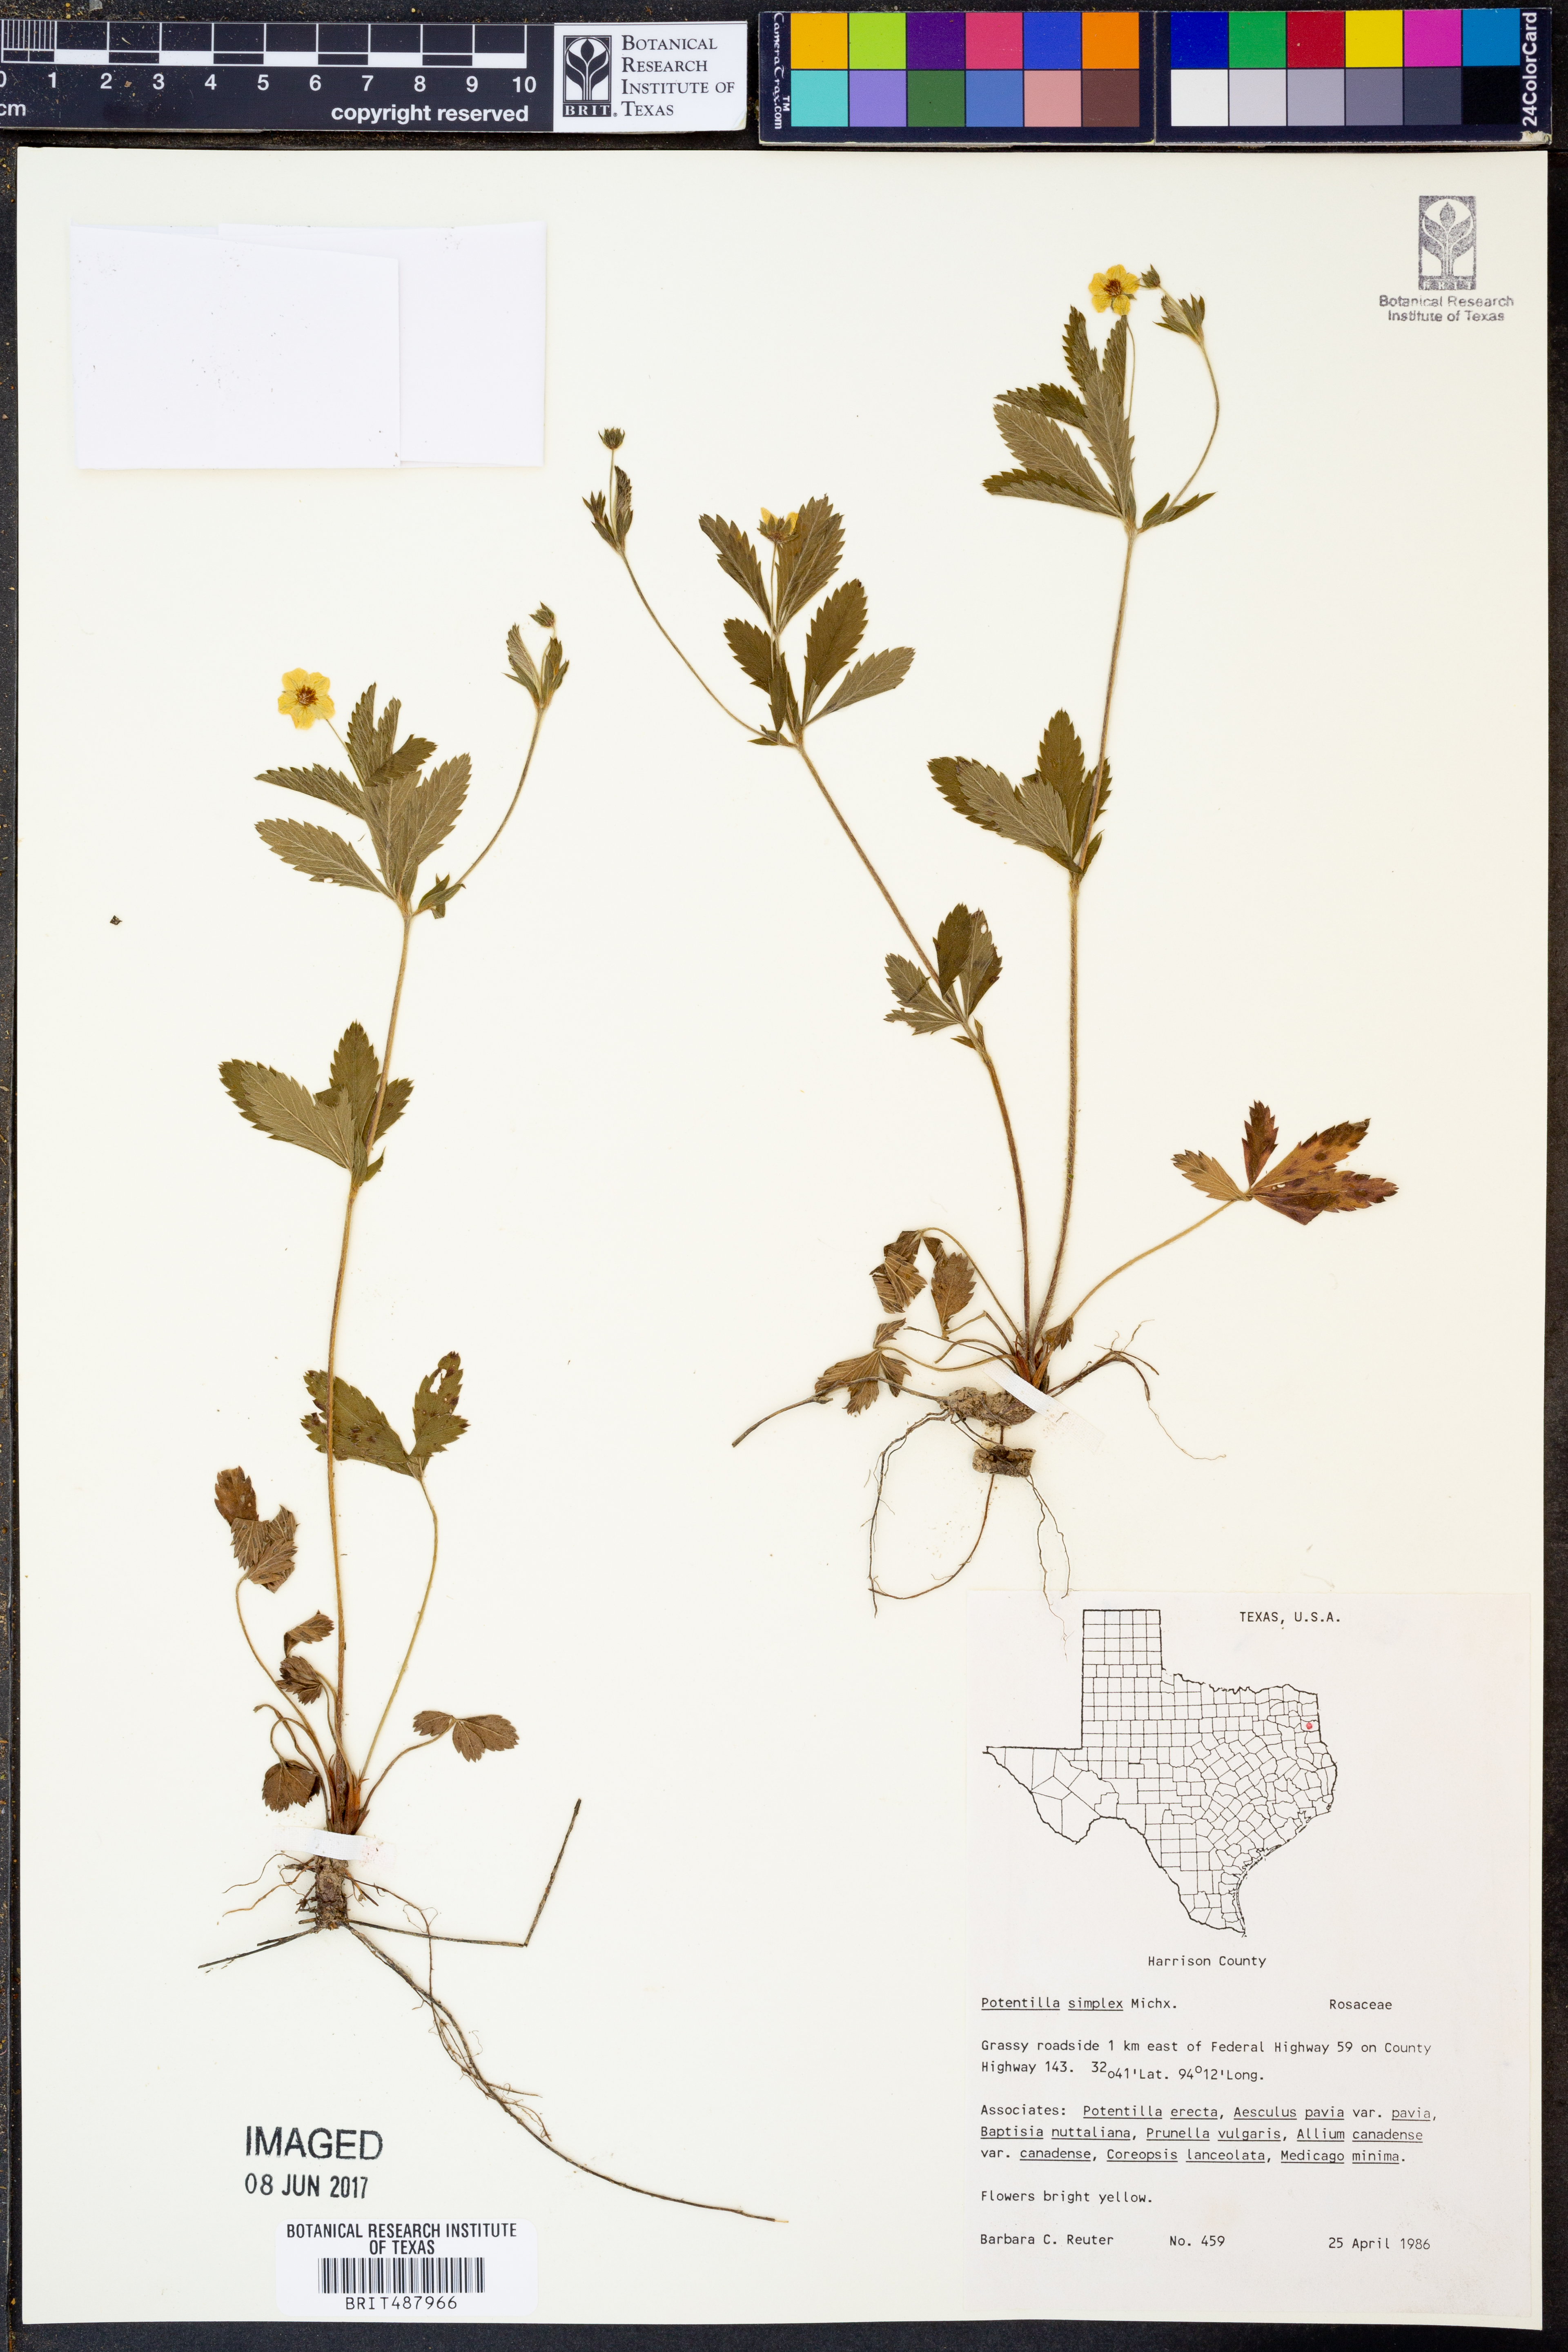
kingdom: Plantae
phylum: Tracheophyta
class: Magnoliopsida
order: Rosales
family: Rosaceae
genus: Potentilla
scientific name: Potentilla simplex
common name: Old field cinquefoil
